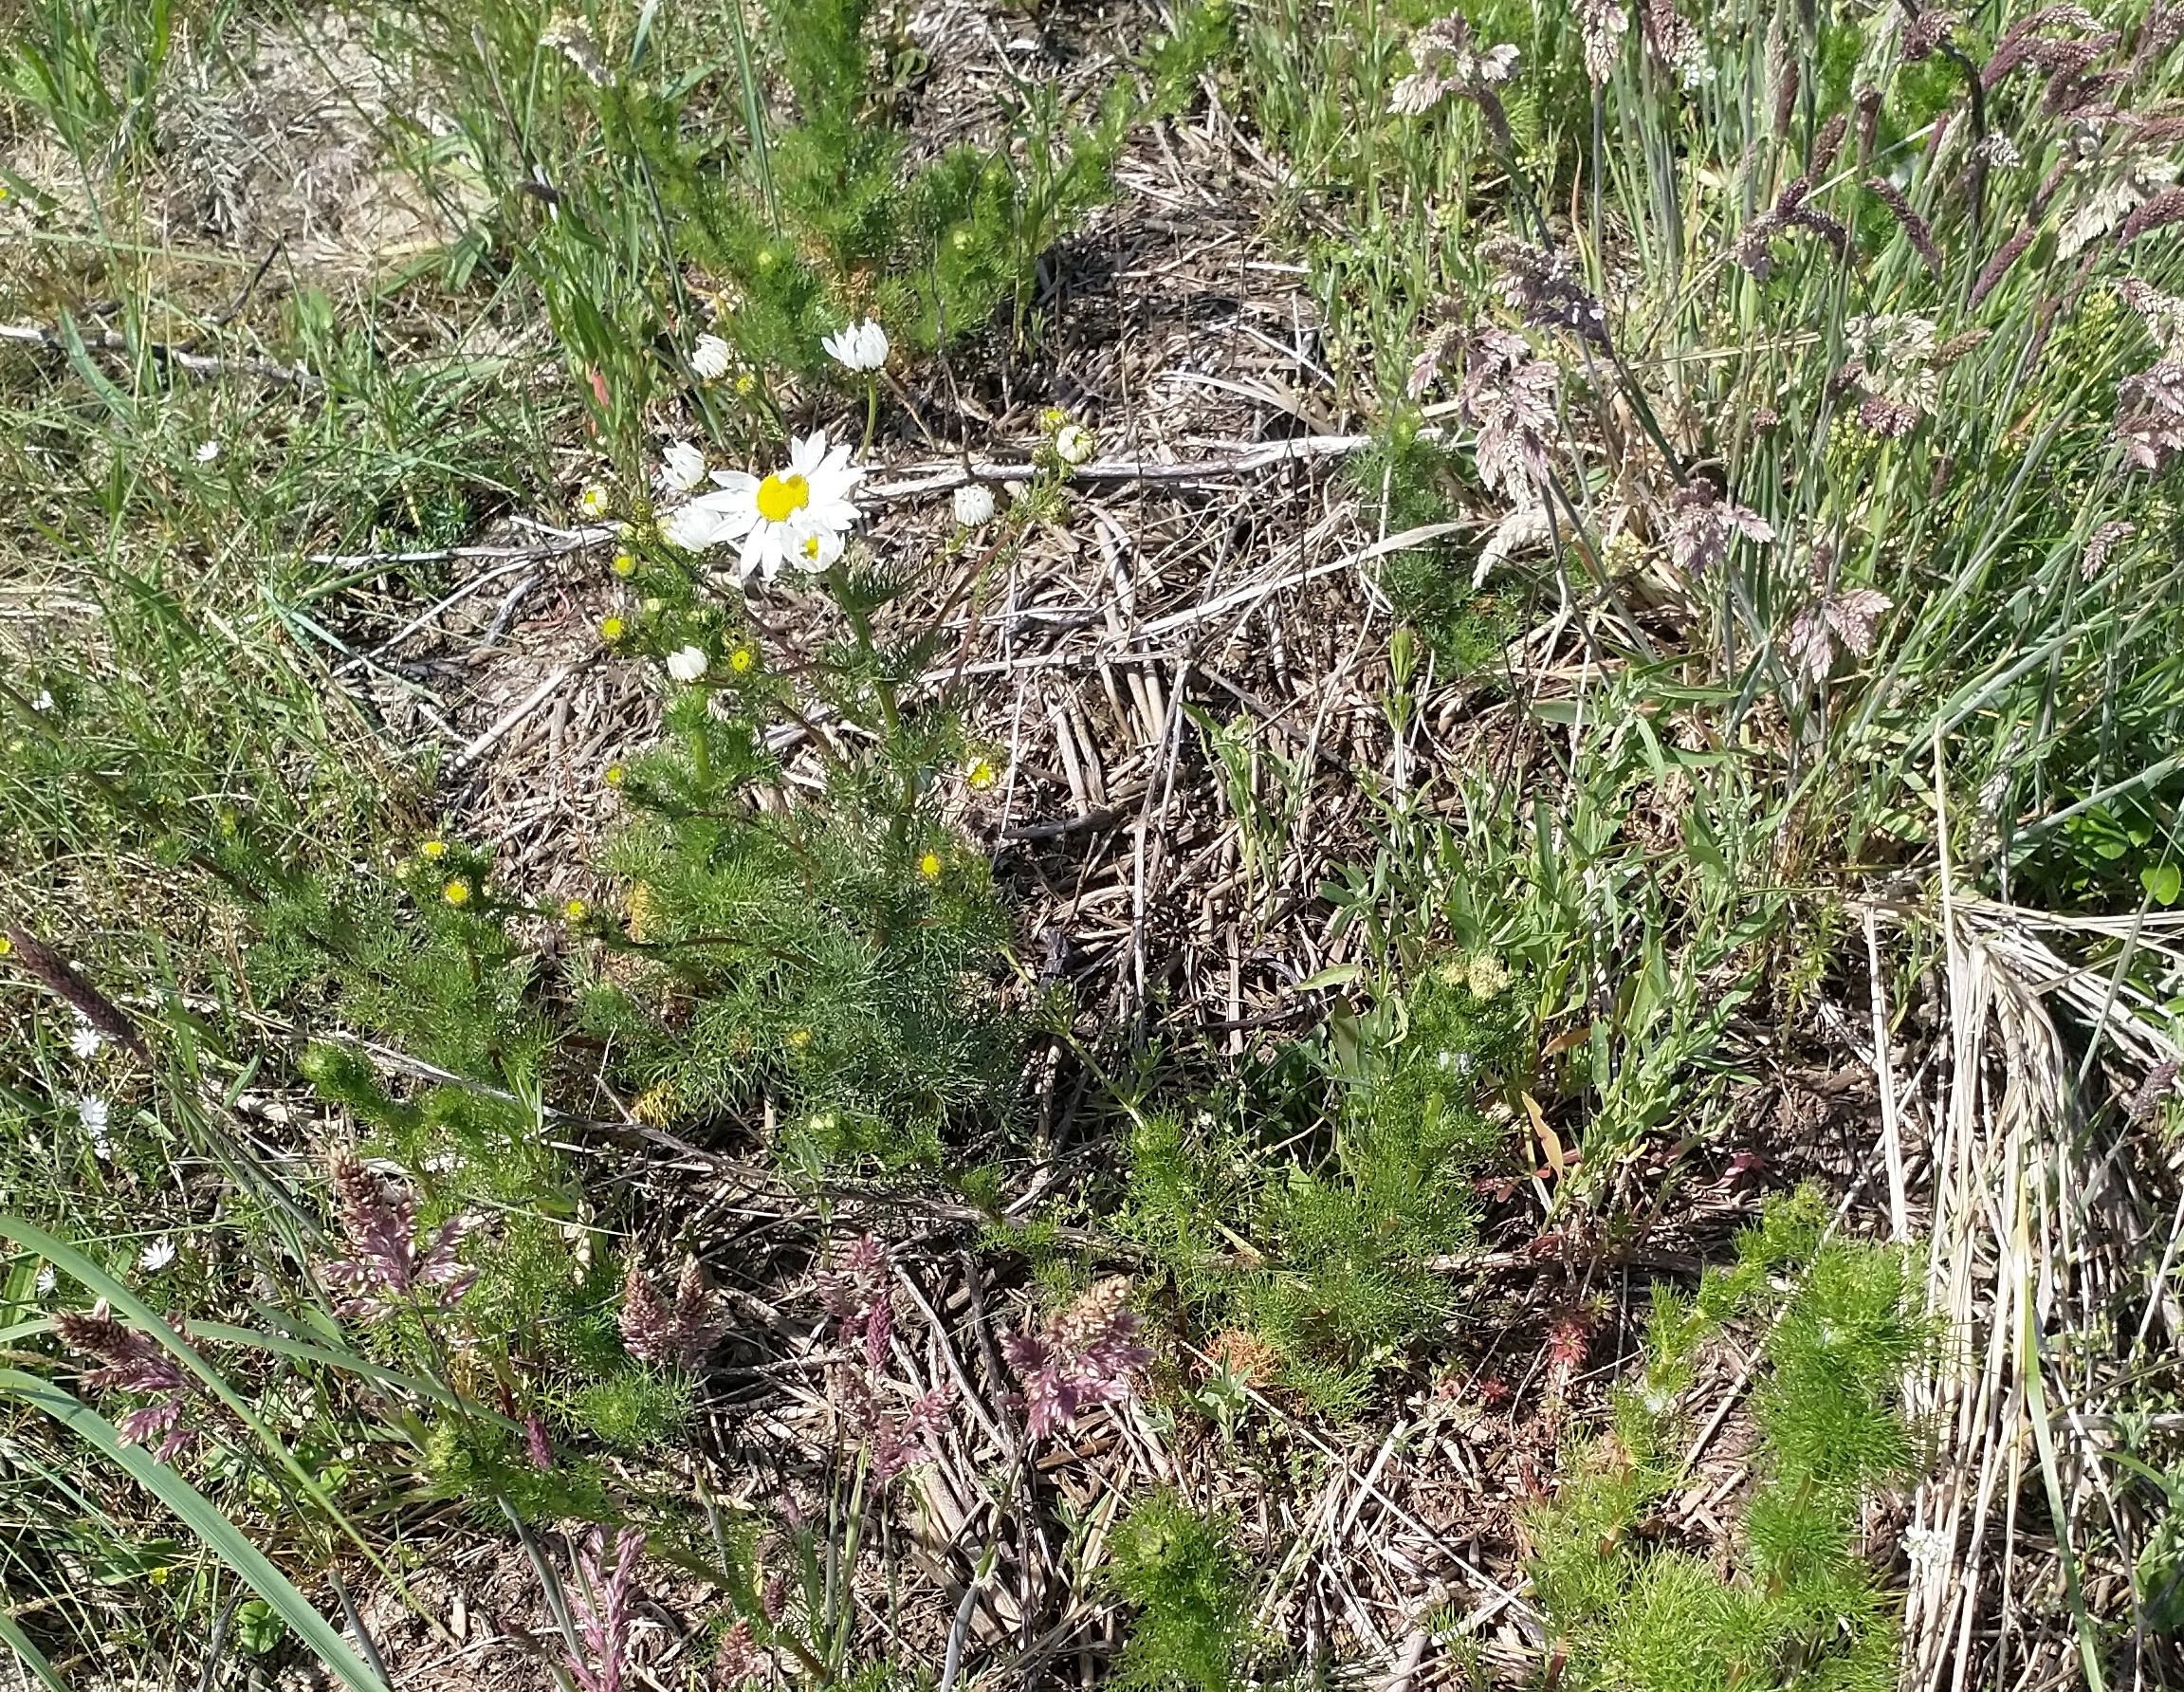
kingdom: Plantae
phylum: Tracheophyta
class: Magnoliopsida
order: Asterales
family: Asteraceae
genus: Tripleurospermum
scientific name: Tripleurospermum inodorum
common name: Lugtløs kamille
